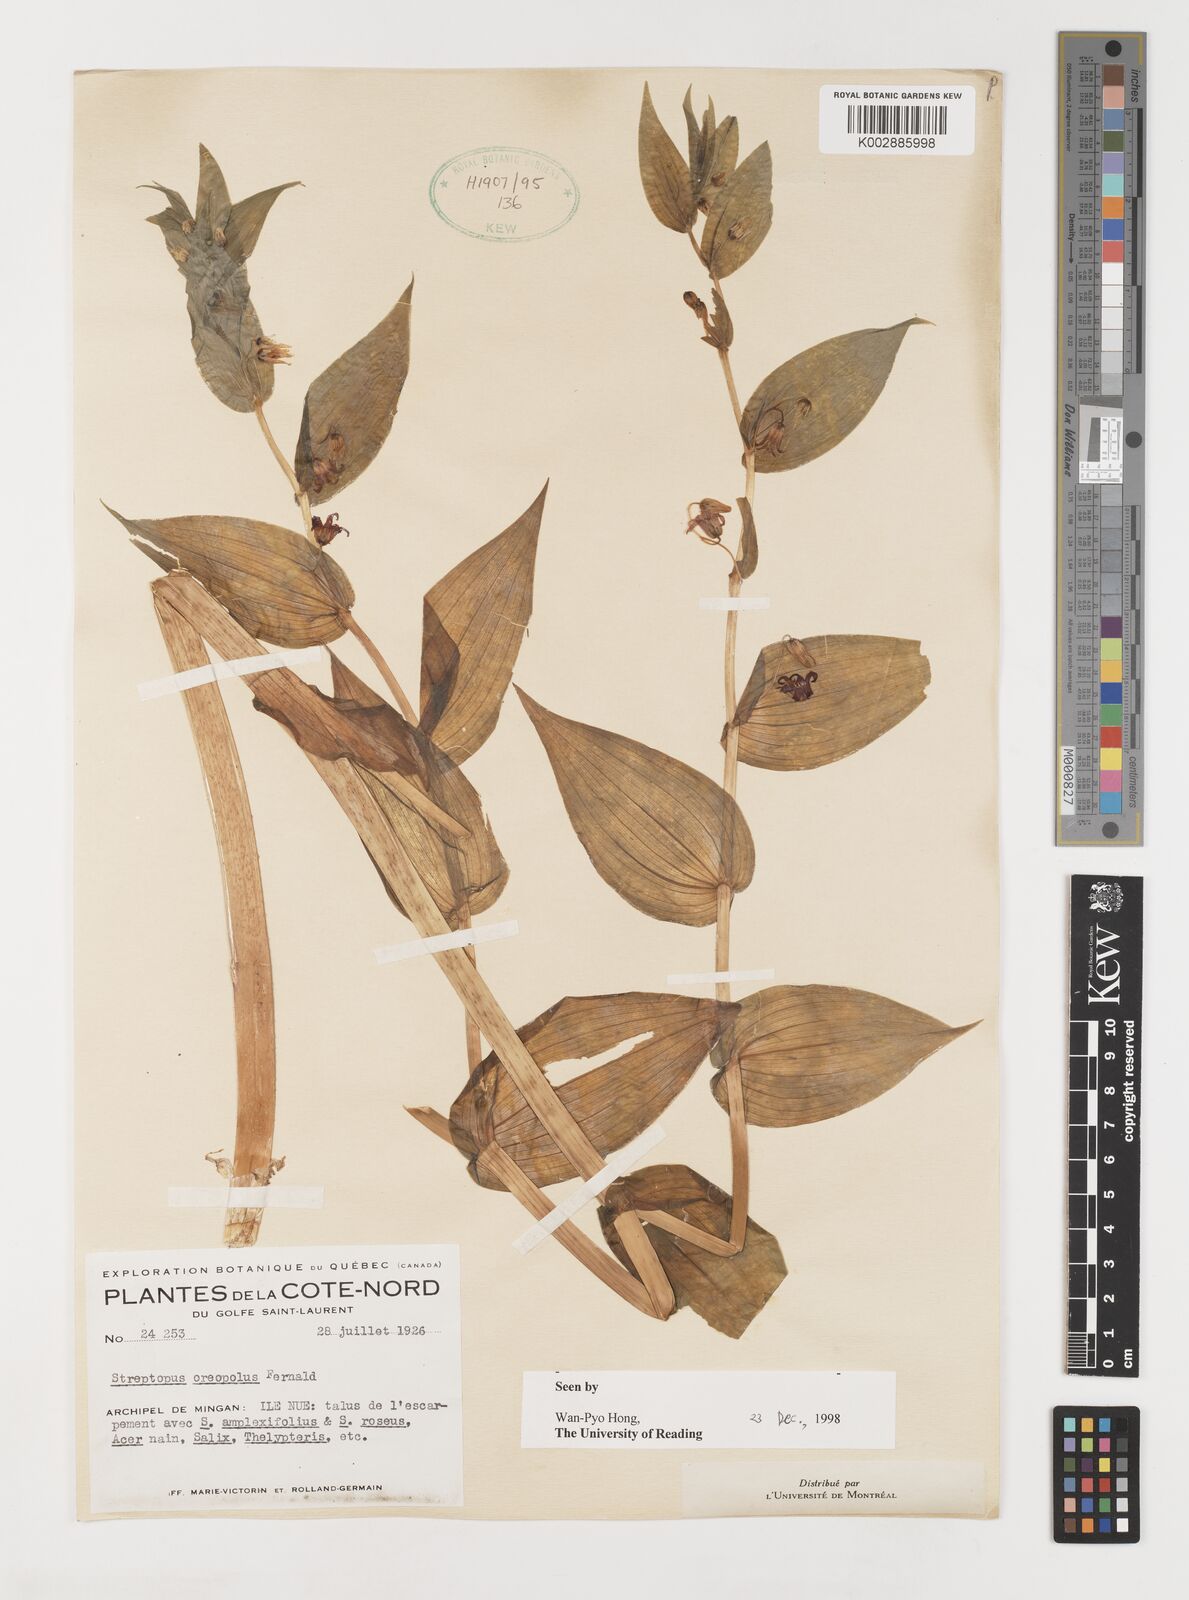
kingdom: Plantae
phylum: Tracheophyta
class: Liliopsida
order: Liliales
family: Liliaceae
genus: Streptopus
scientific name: Streptopus oreopolus
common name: Hybrid twisted-stalk
